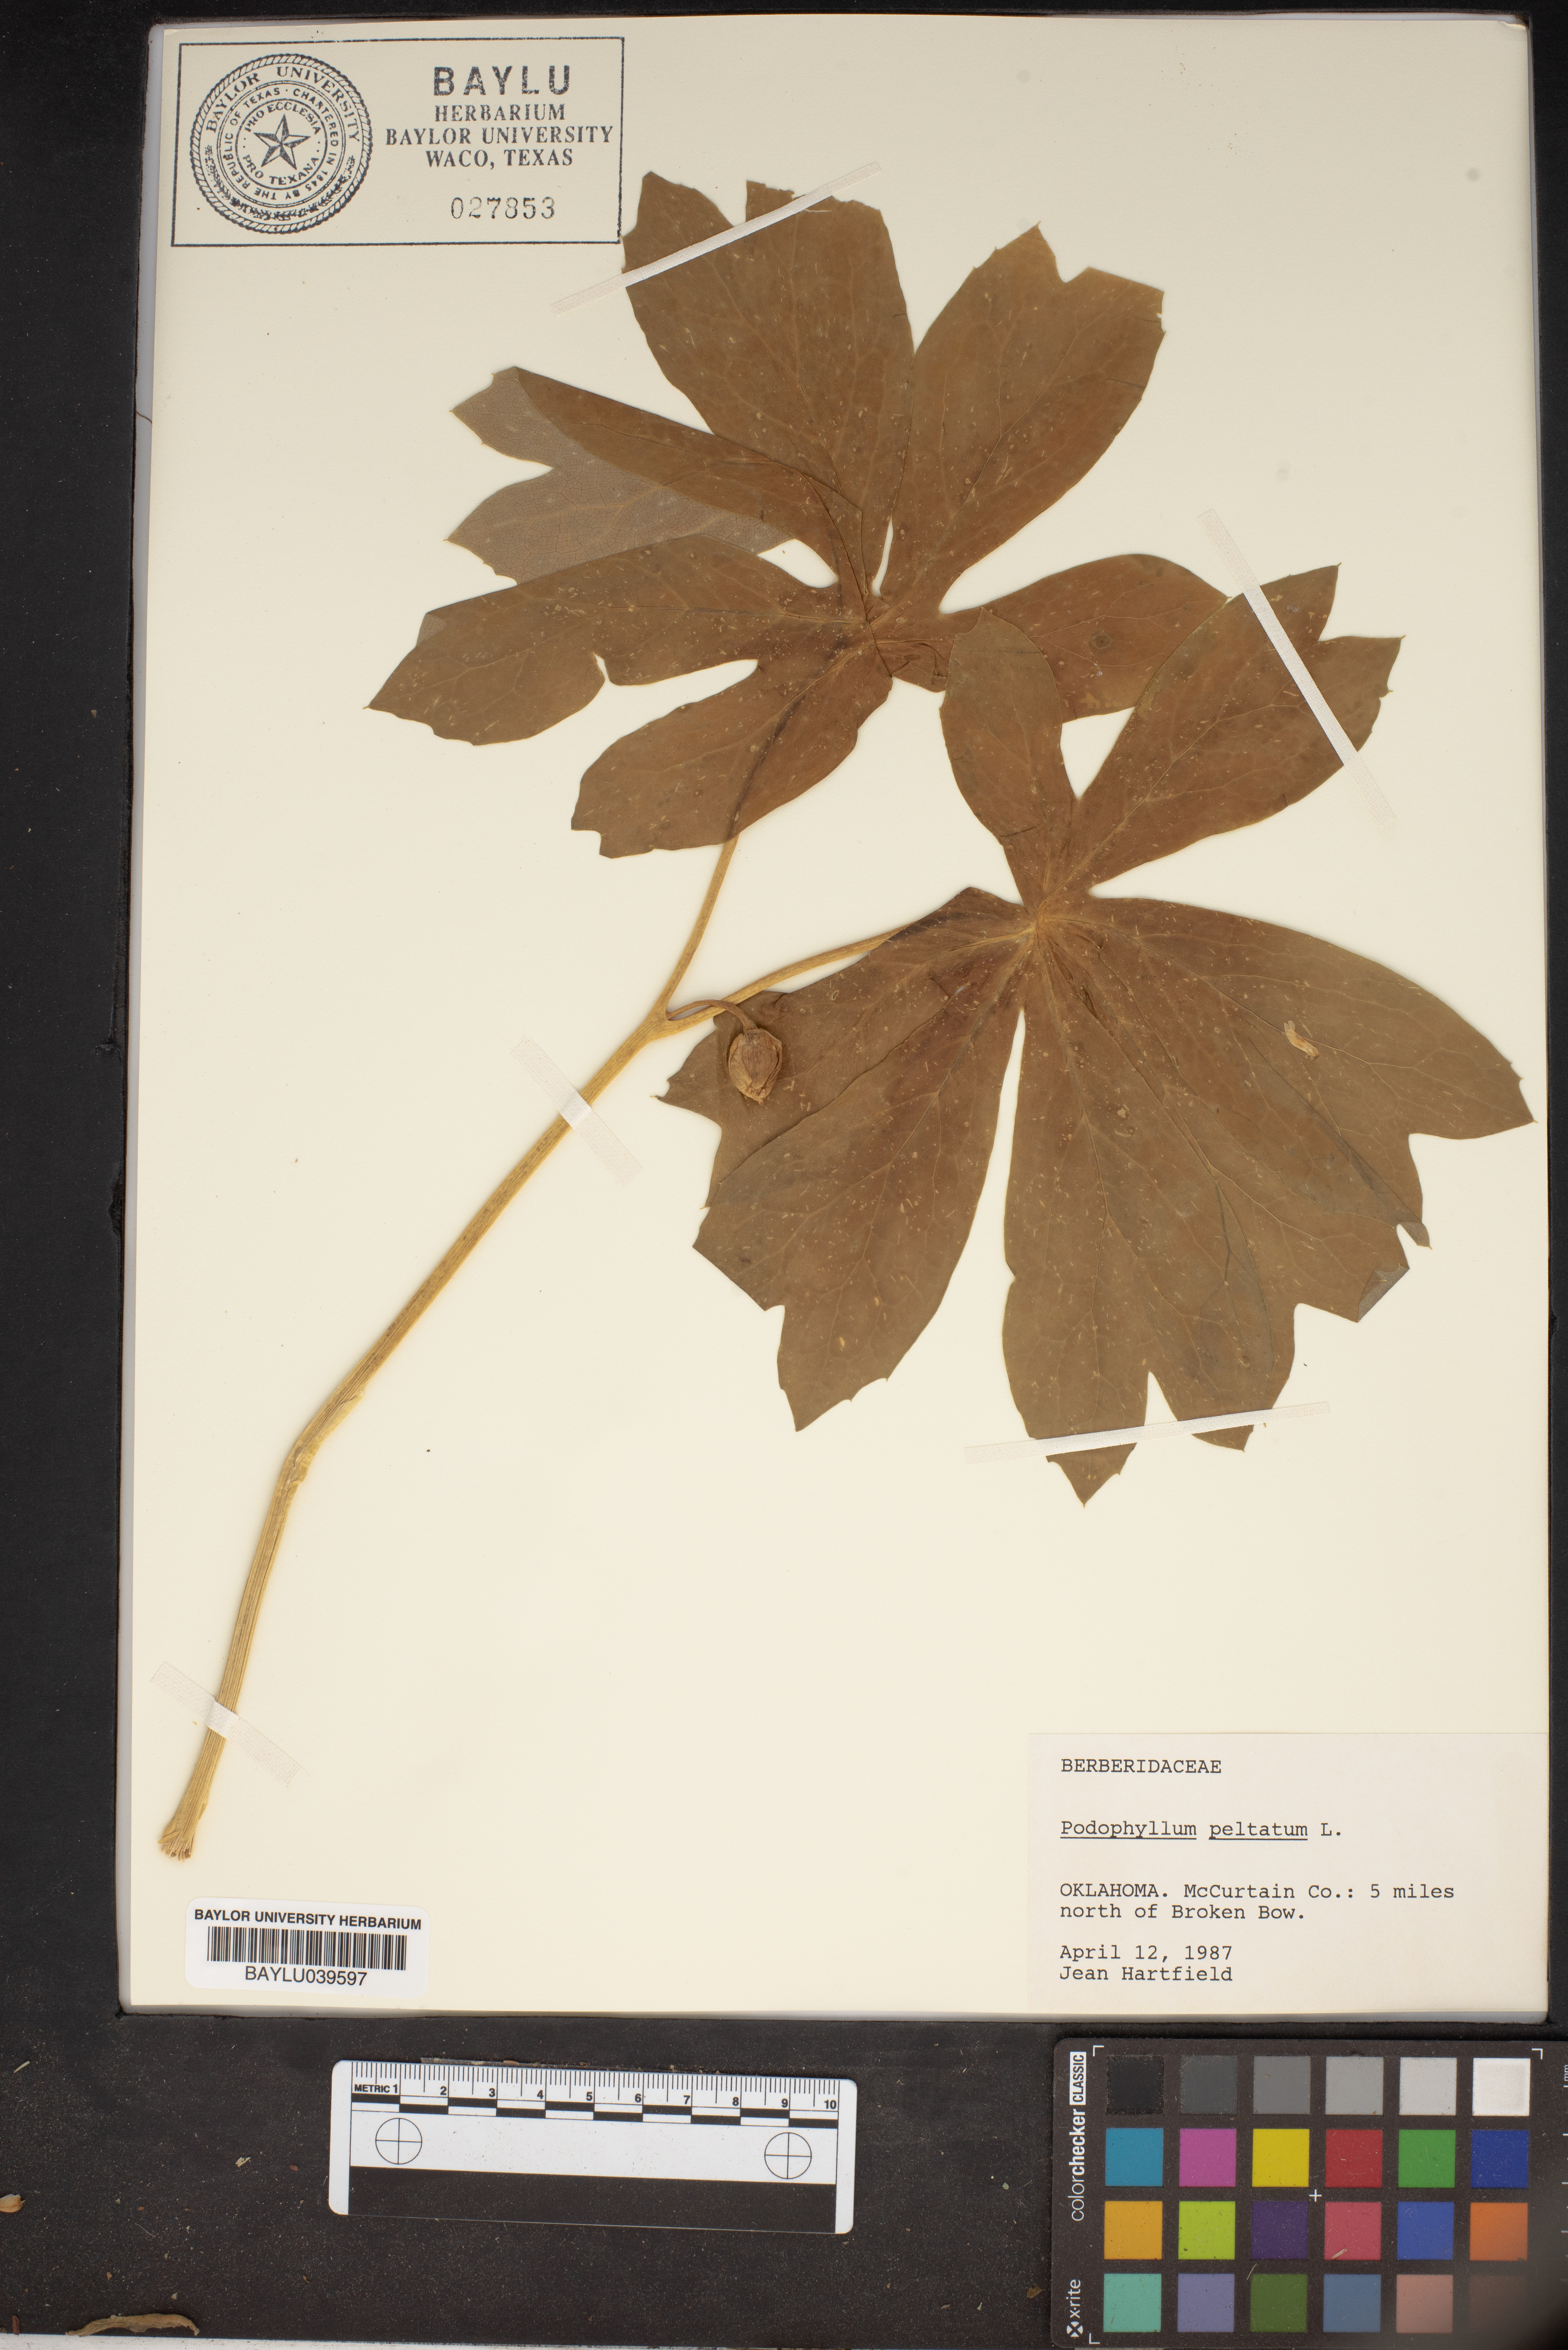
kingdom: Plantae
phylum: Tracheophyta
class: Magnoliopsida
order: Ranunculales
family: Berberidaceae
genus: Podophyllum
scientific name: Podophyllum peltatum
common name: Wild mandrake
